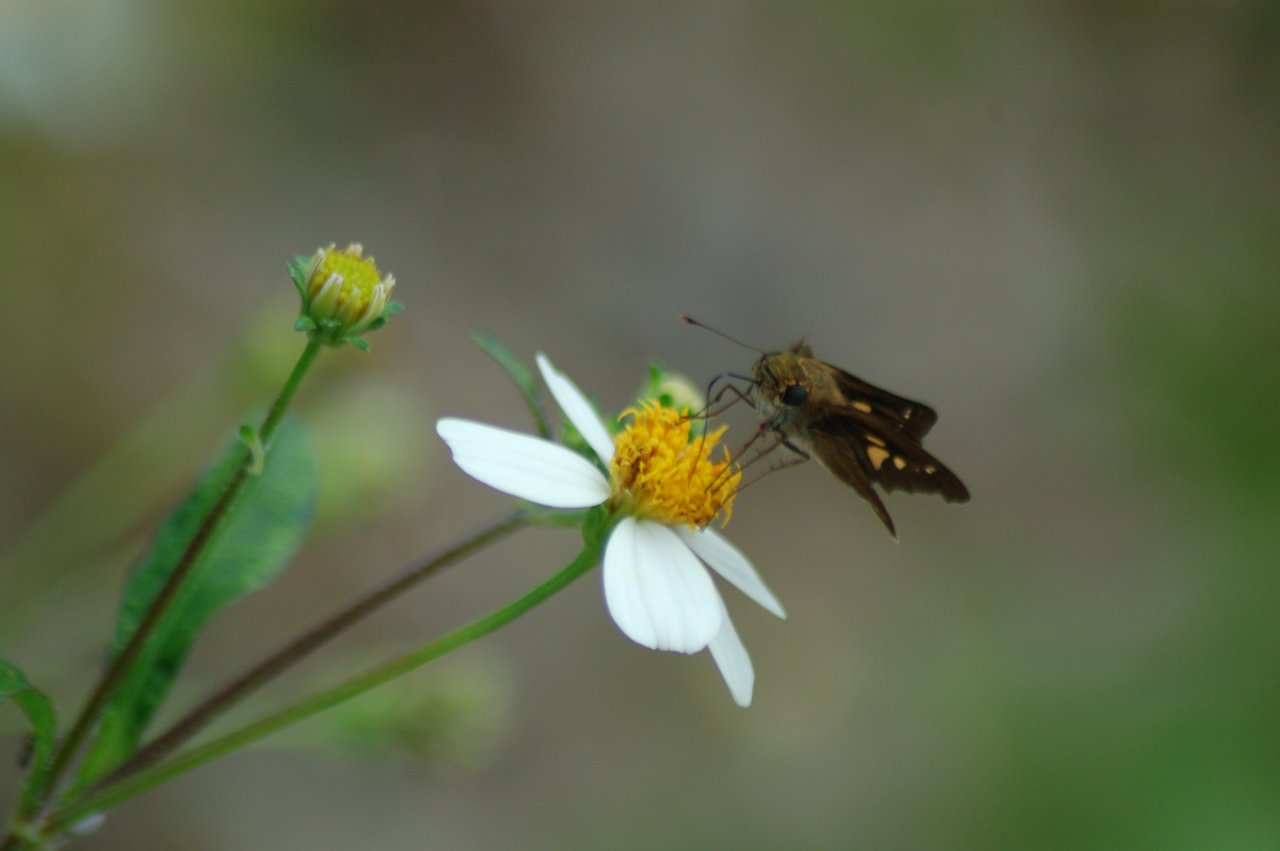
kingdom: Animalia
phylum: Arthropoda
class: Insecta
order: Lepidoptera
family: Hesperiidae
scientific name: Hesperiidae
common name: Skippers
